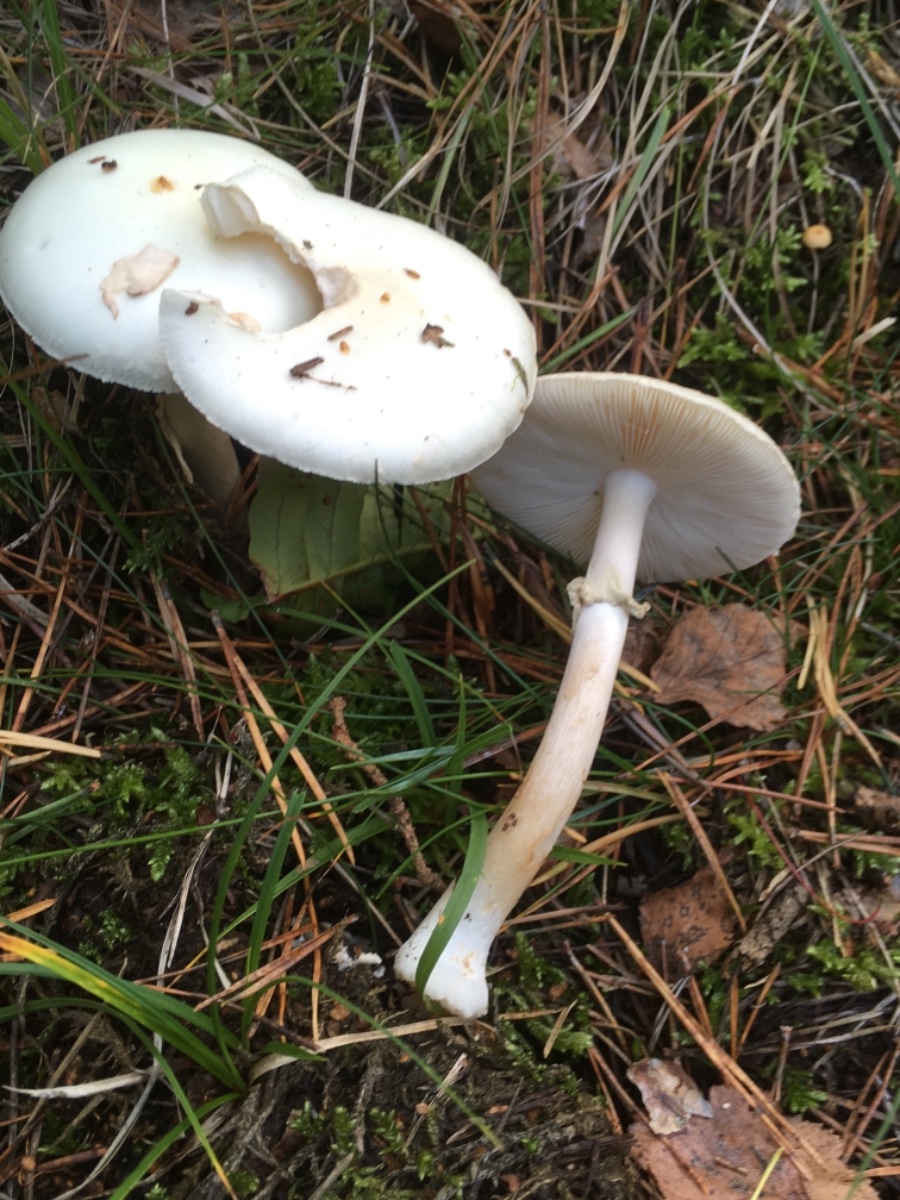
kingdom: Fungi
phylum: Basidiomycota
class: Agaricomycetes
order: Agaricales
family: Amanitaceae
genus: Amanita
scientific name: Amanita citrina
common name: False death-cap
